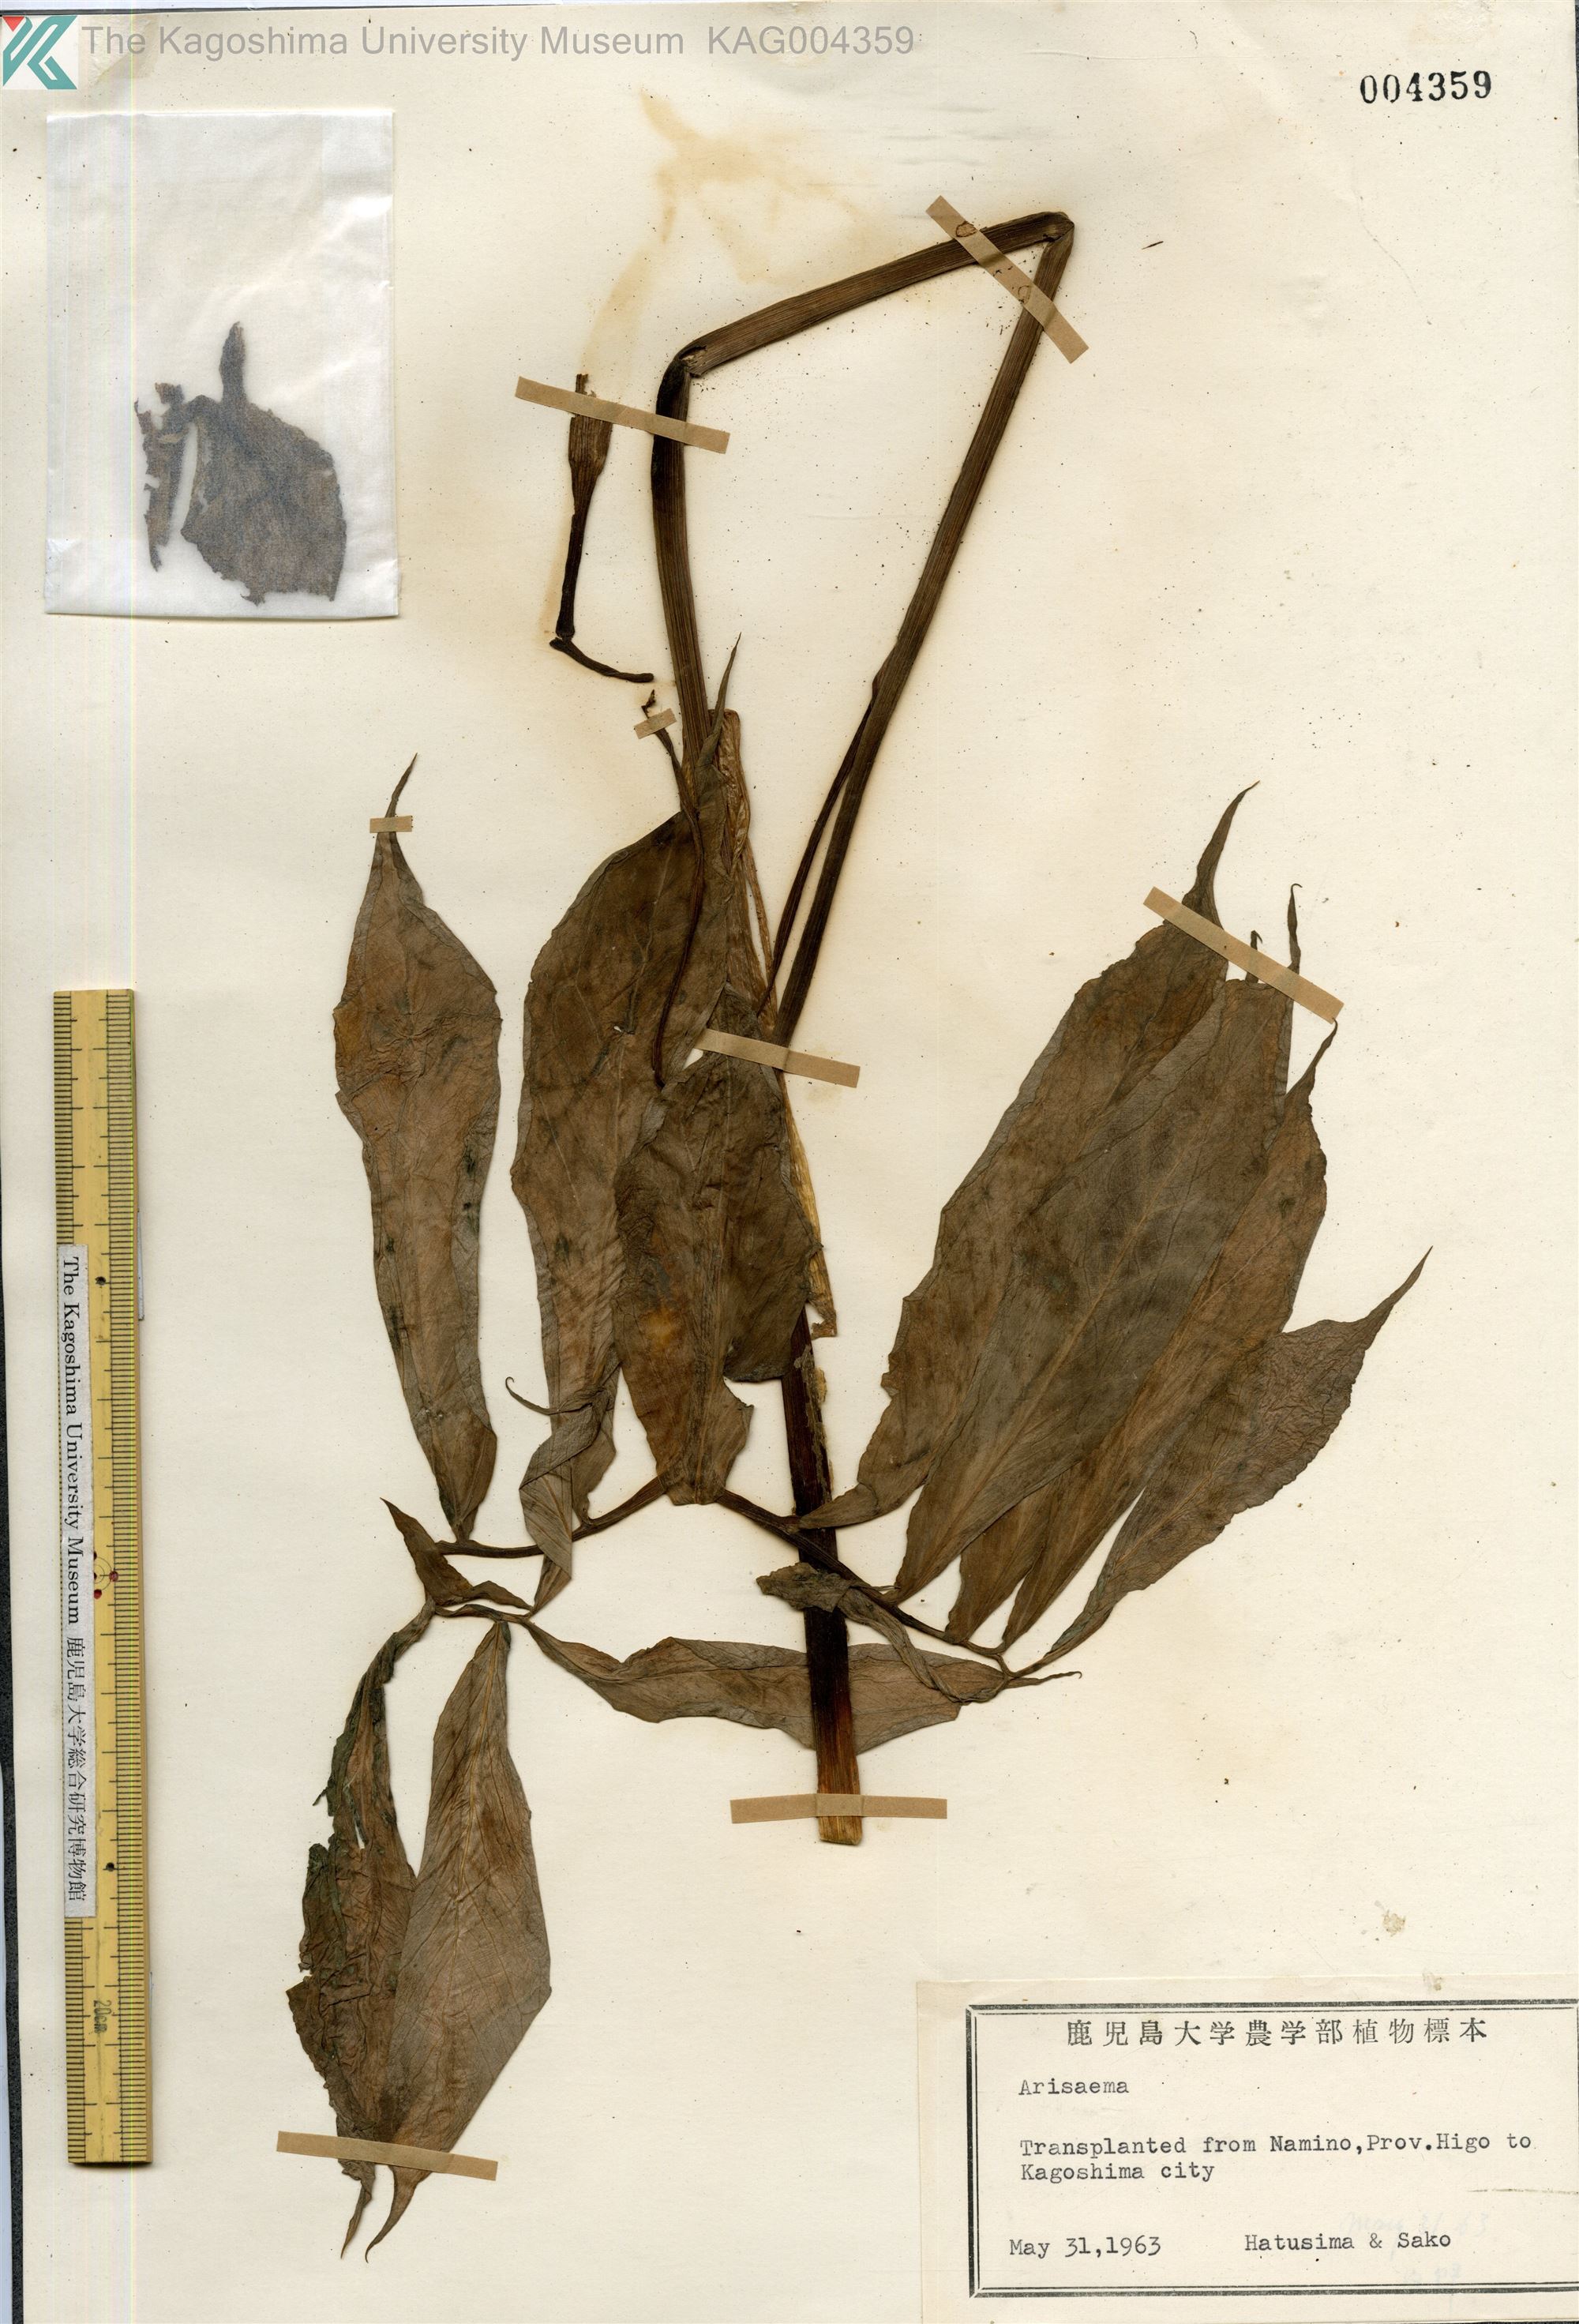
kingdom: Plantae
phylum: Tracheophyta
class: Liliopsida
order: Alismatales
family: Araceae
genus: Arisaema
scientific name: Arisaema heterophyllum
